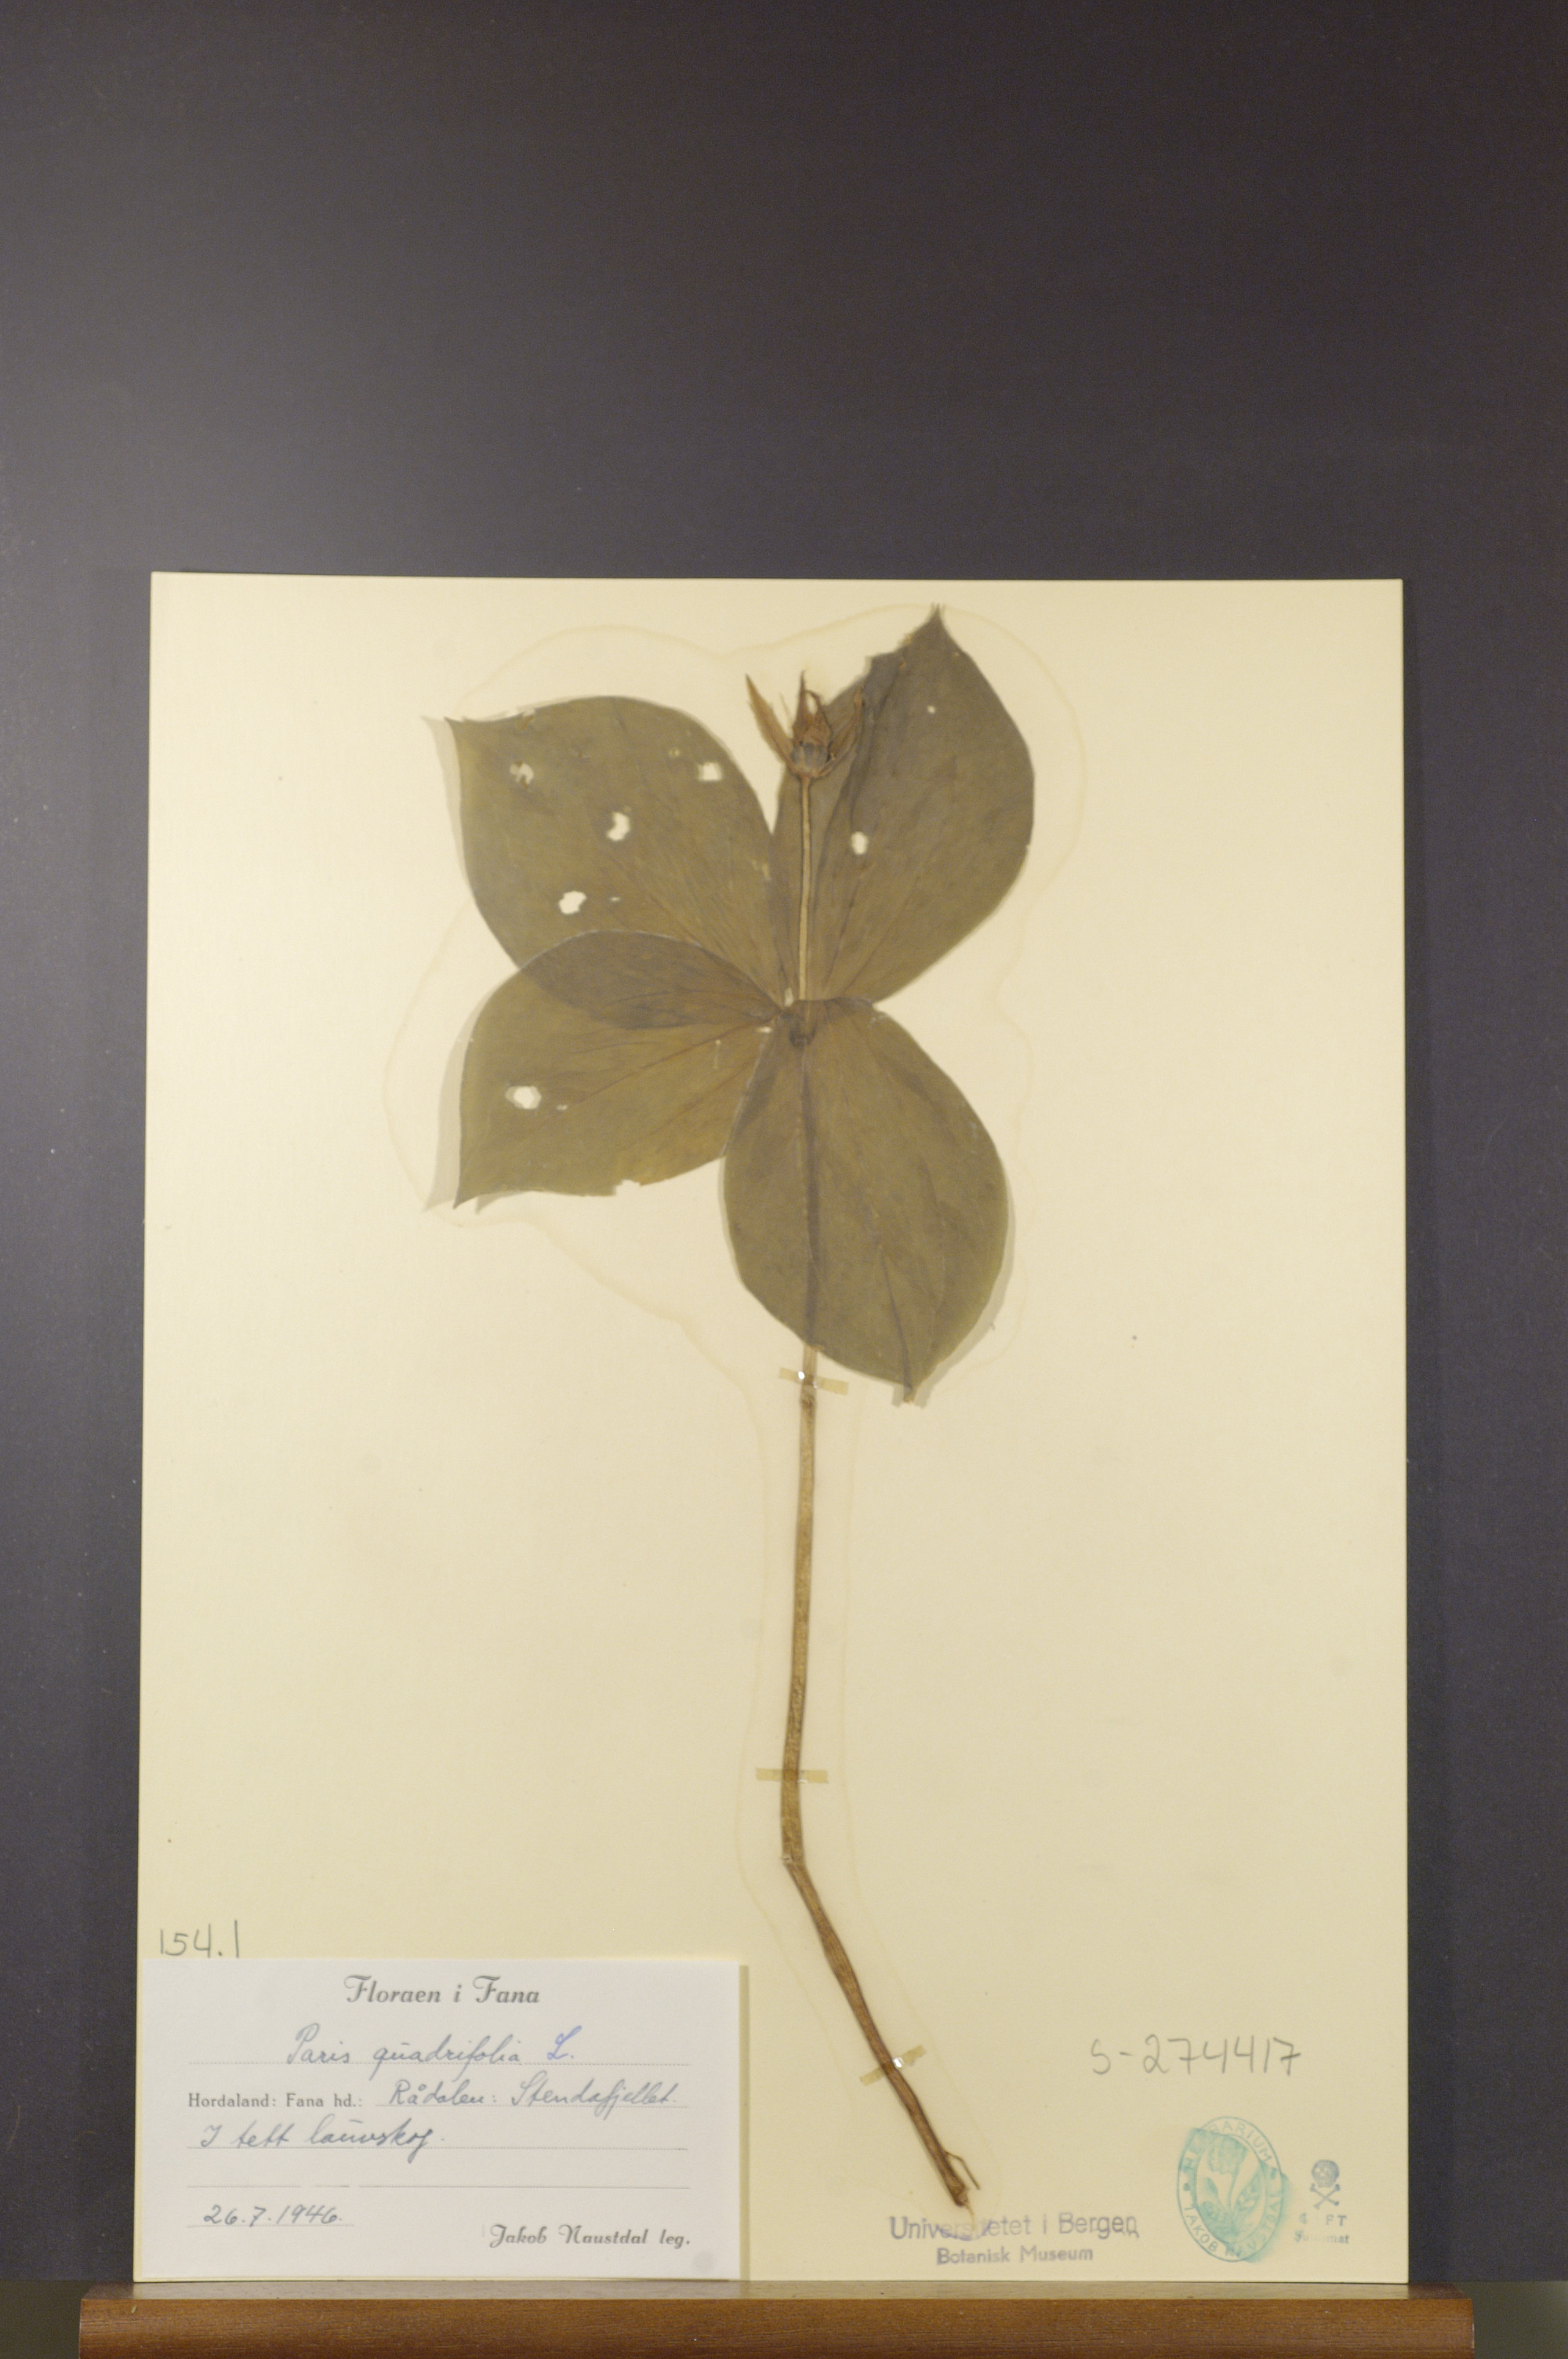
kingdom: Plantae
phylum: Tracheophyta
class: Liliopsida
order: Liliales
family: Melanthiaceae
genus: Paris
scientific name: Paris quadrifolia
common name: Herb-paris
